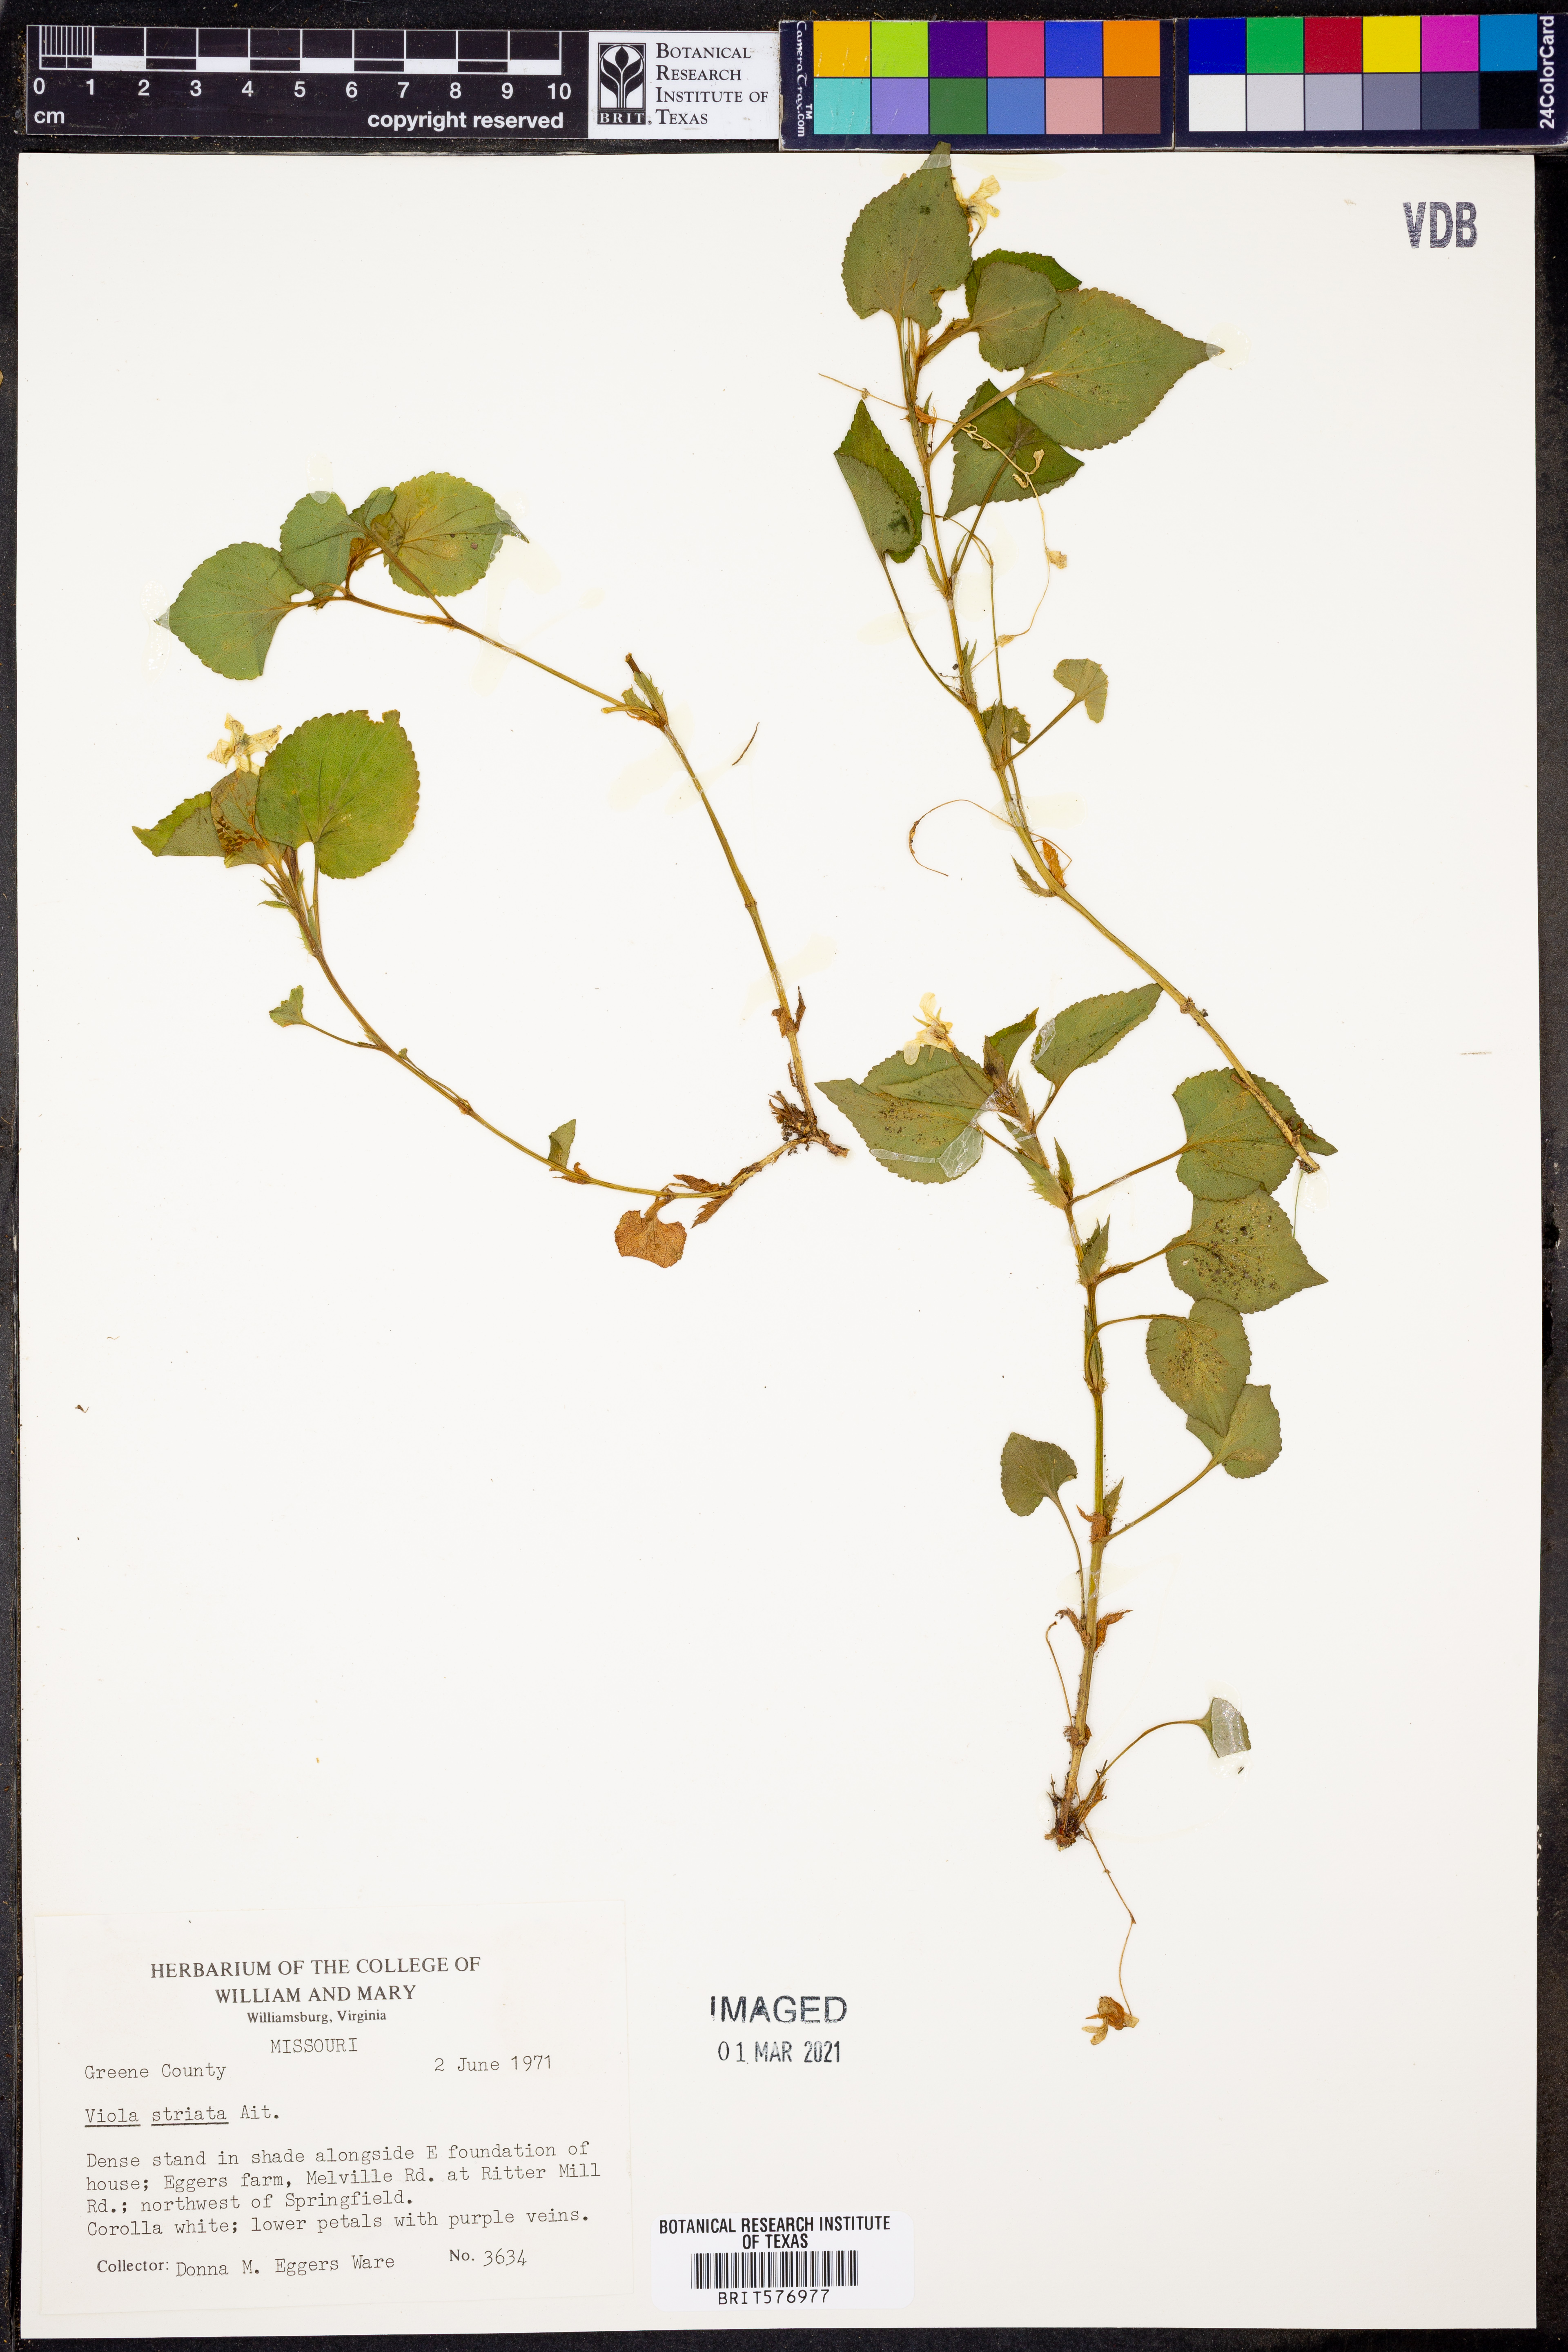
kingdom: Plantae
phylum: Tracheophyta
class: Magnoliopsida
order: Malpighiales
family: Violaceae
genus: Viola
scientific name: Viola striata
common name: Cream violet
